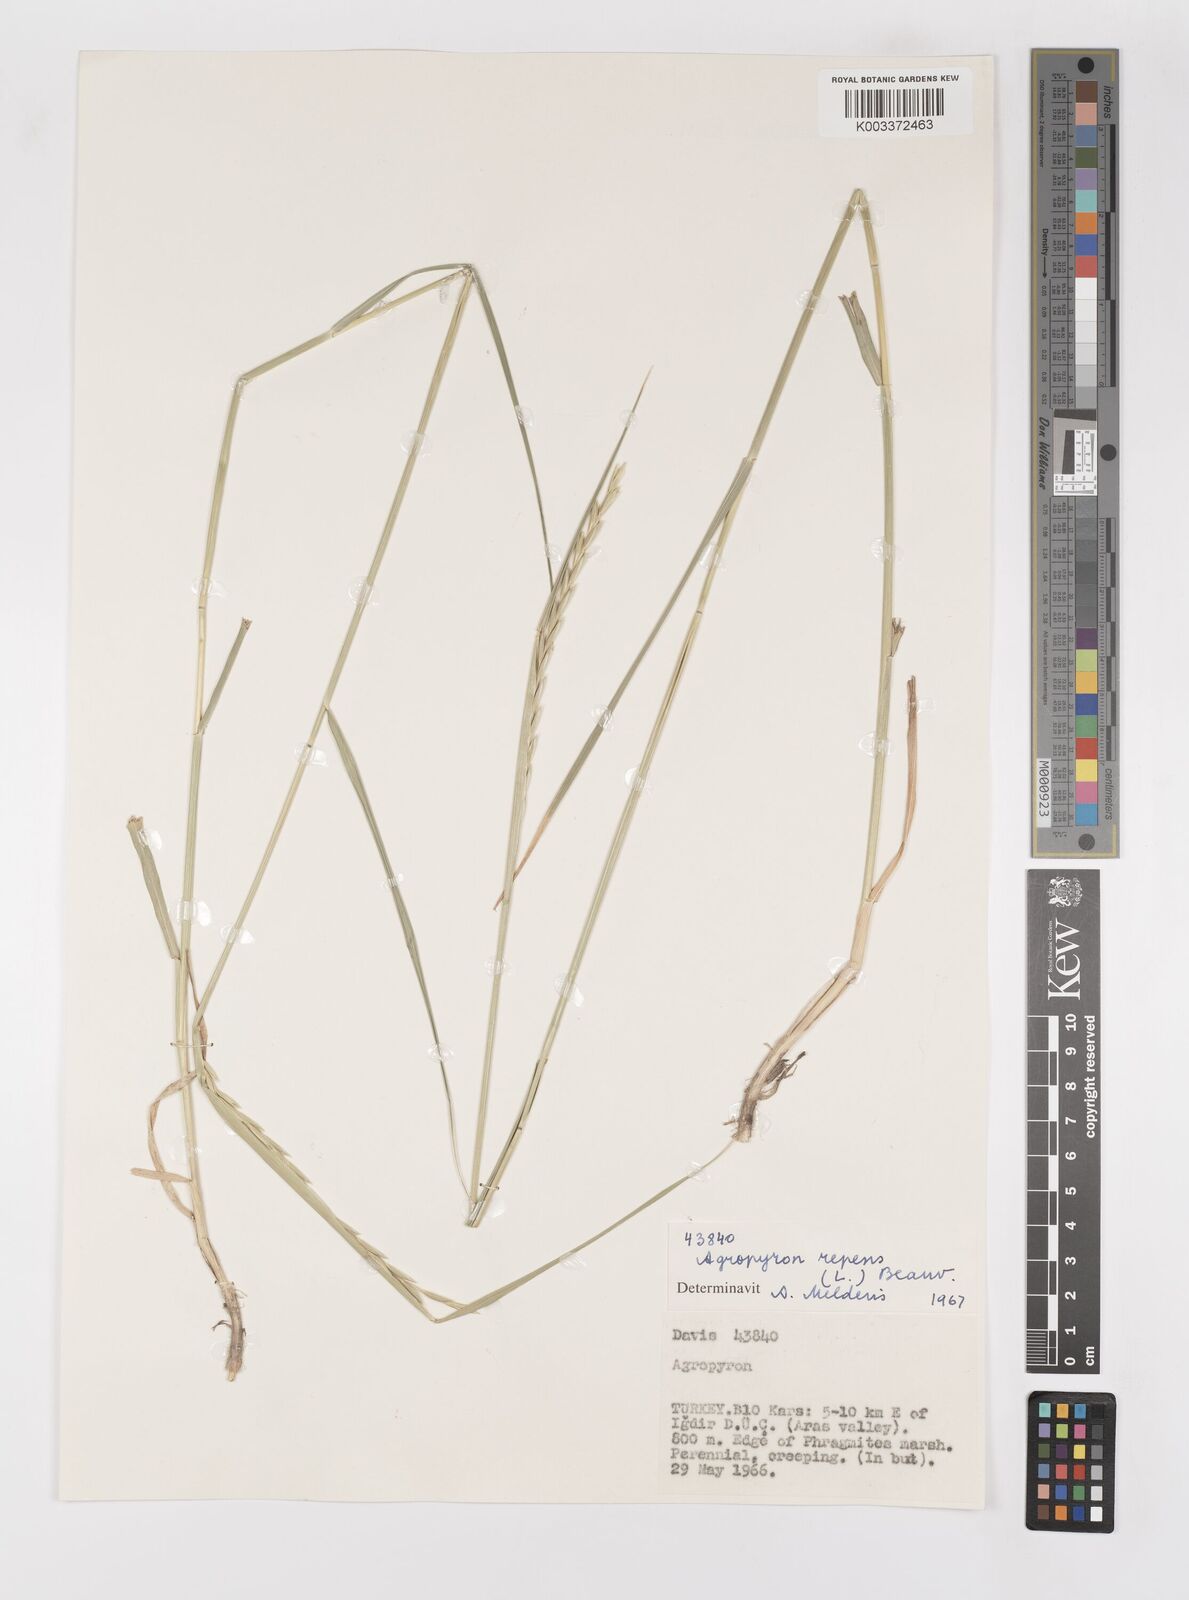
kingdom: Plantae
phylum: Tracheophyta
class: Liliopsida
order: Poales
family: Poaceae
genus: Elymus
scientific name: Elymus repens
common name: Quackgrass
